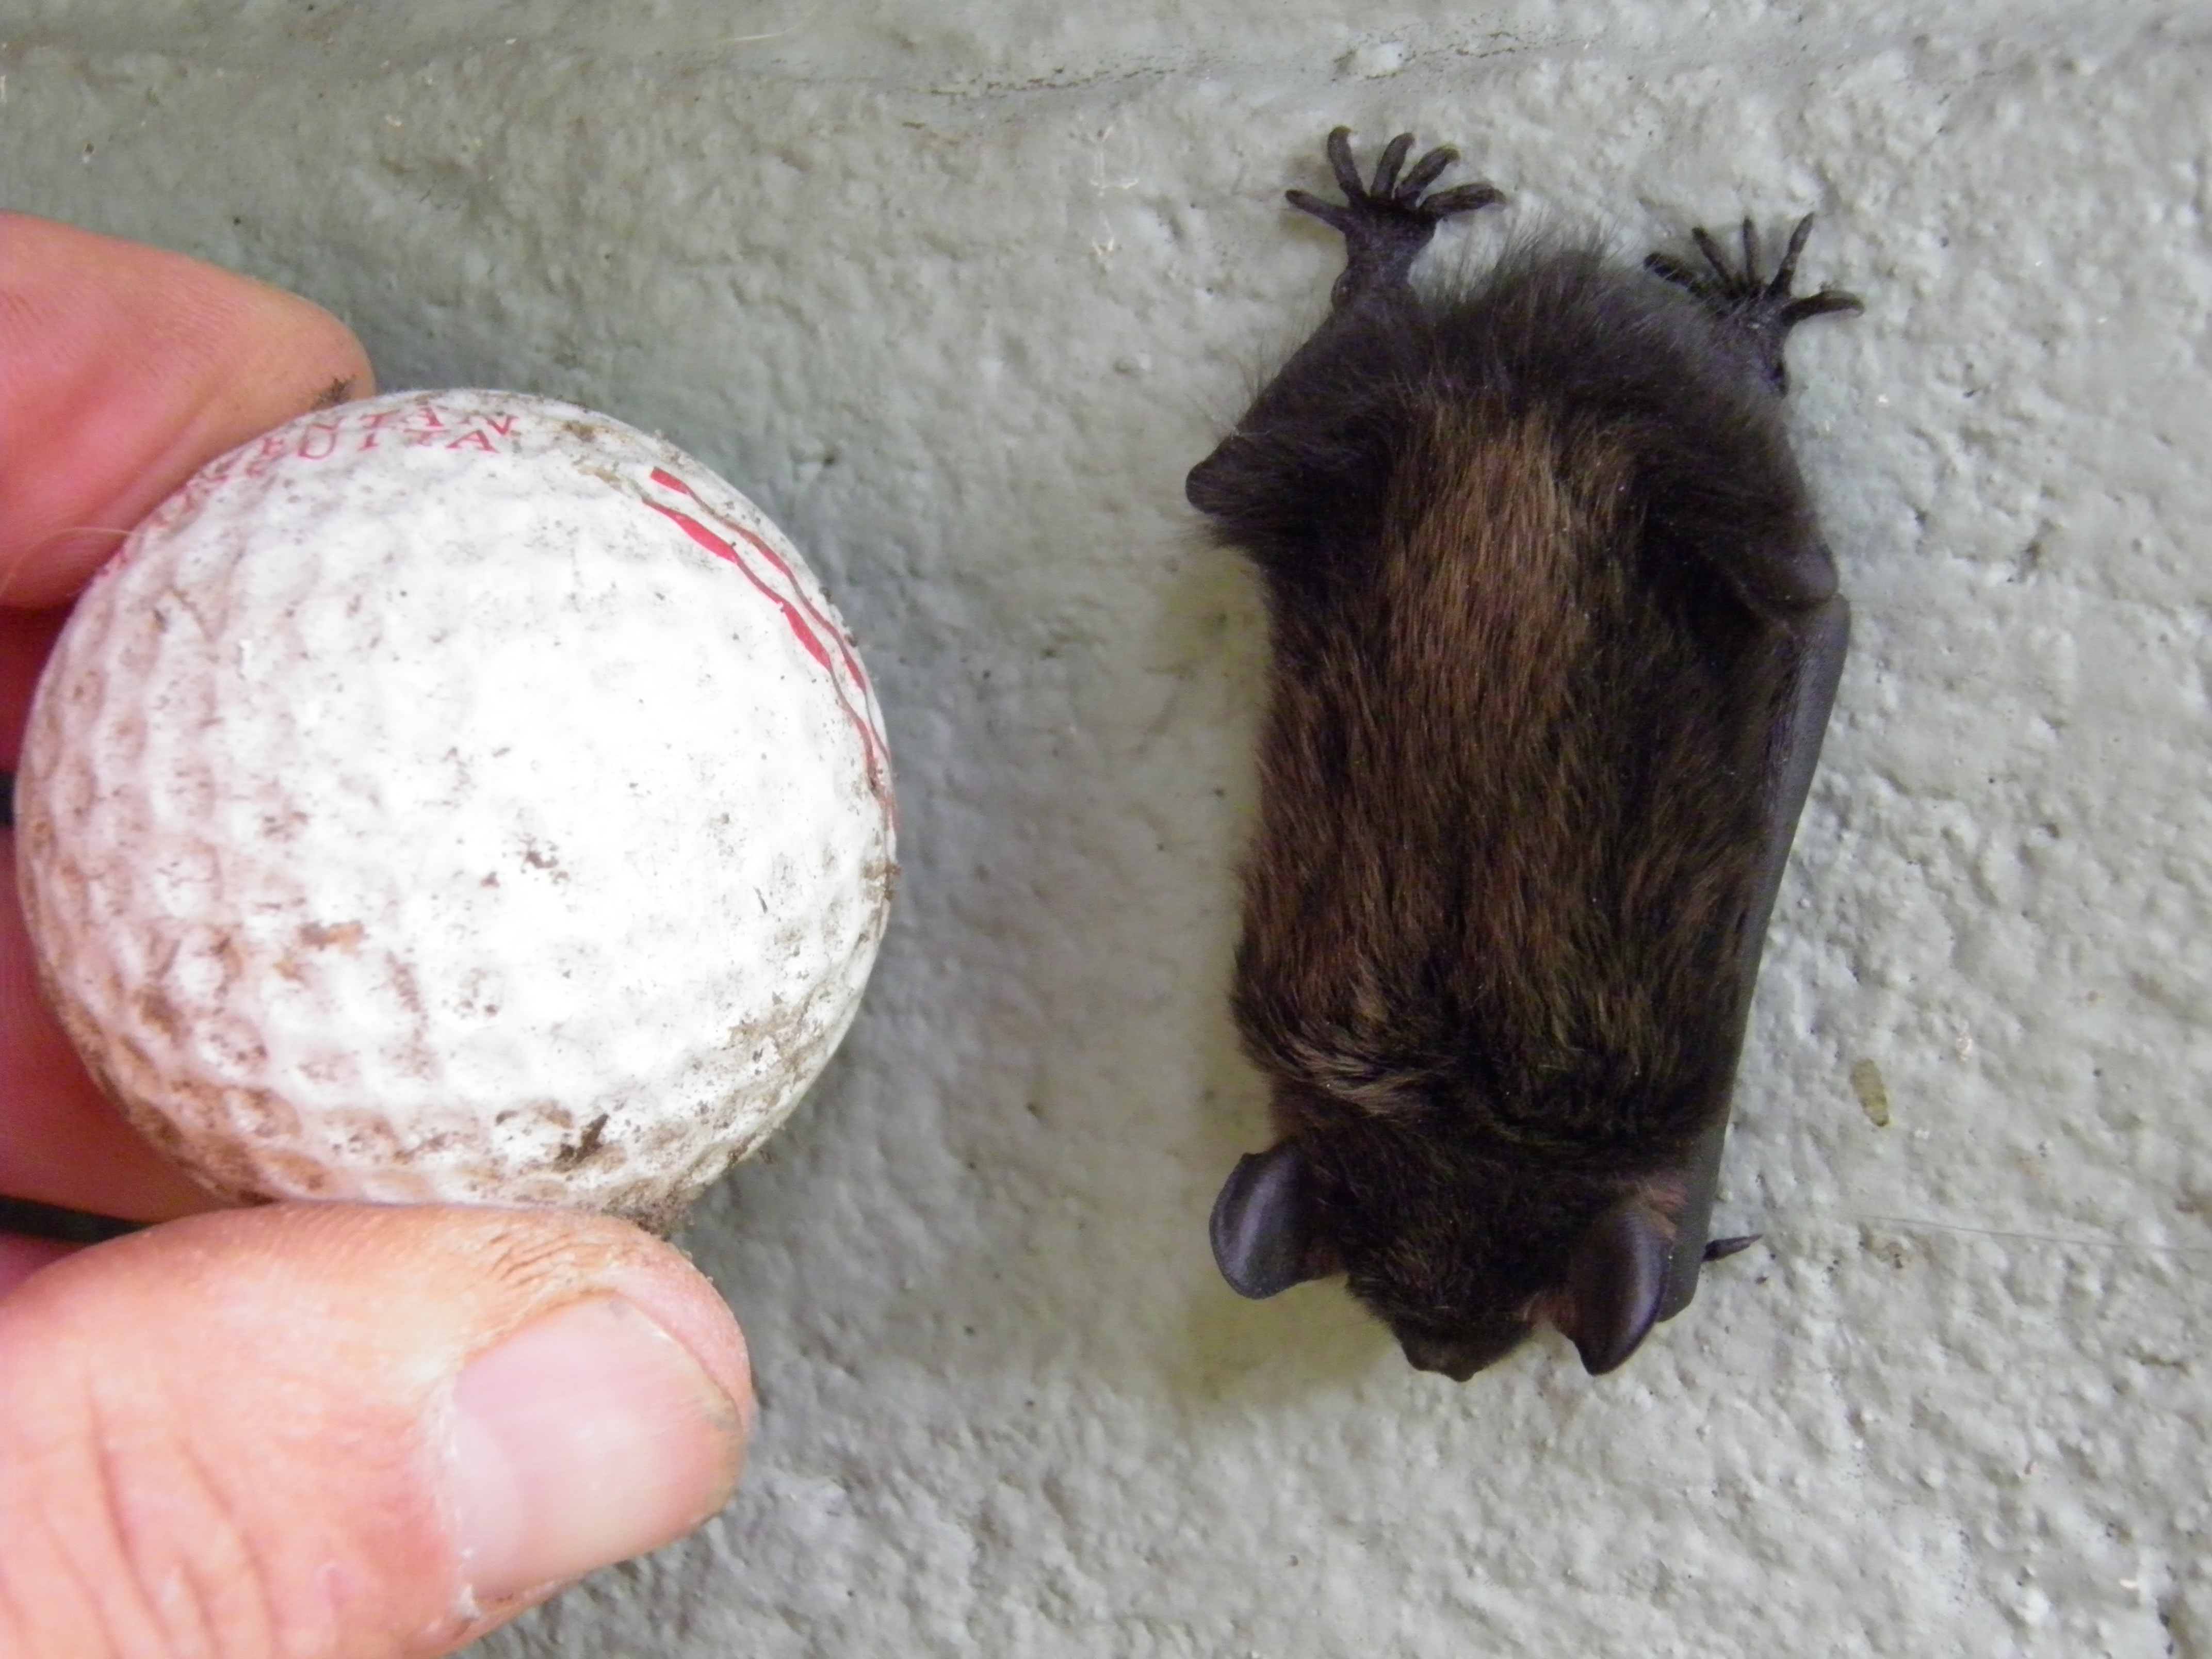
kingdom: Animalia
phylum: Chordata
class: Mammalia
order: Chiroptera
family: Vespertilionidae
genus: Eptesicus
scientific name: Eptesicus nilssonii
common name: Northern bat
